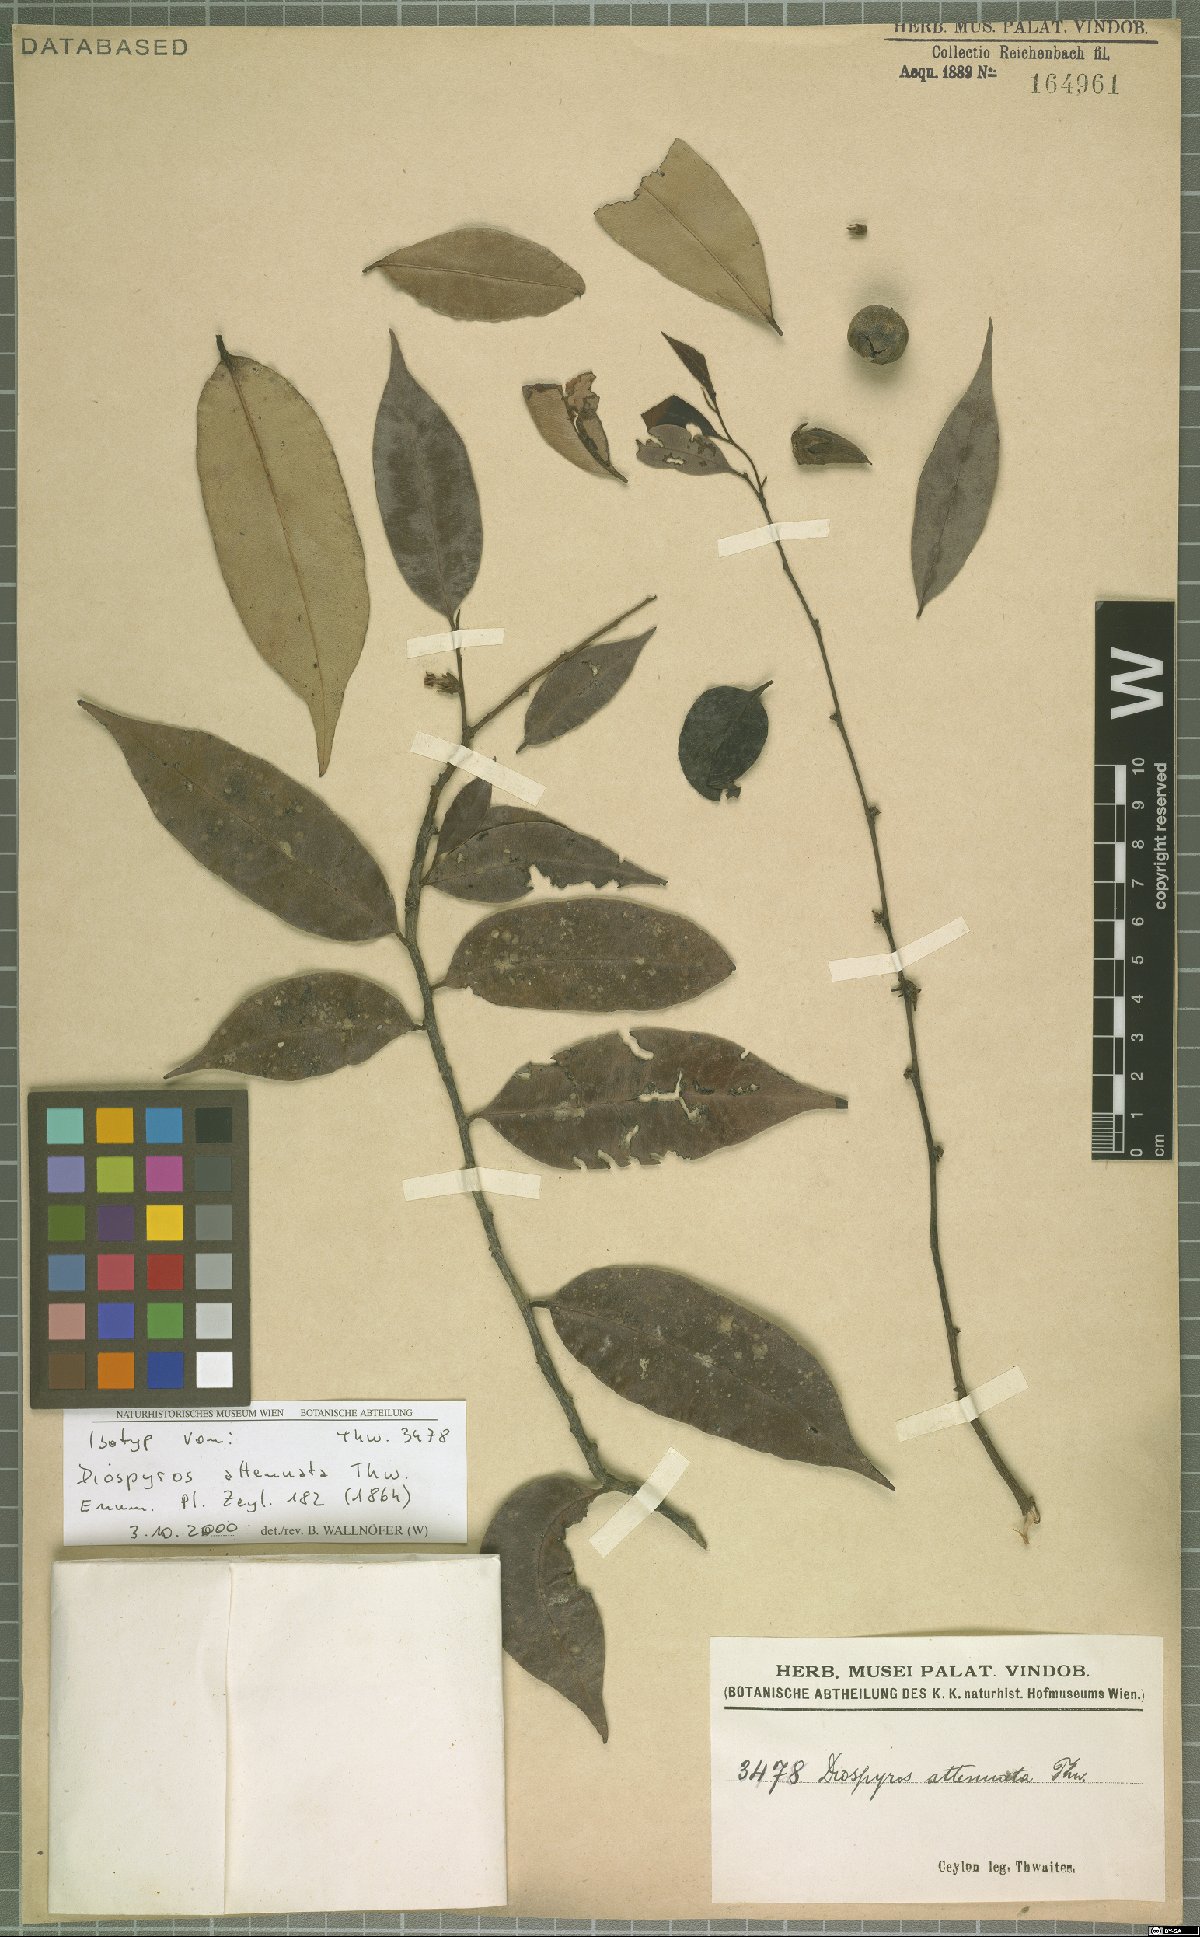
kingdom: Plantae
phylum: Tracheophyta
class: Magnoliopsida
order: Ericales
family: Ebenaceae
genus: Diospyros
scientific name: Diospyros attenuata
